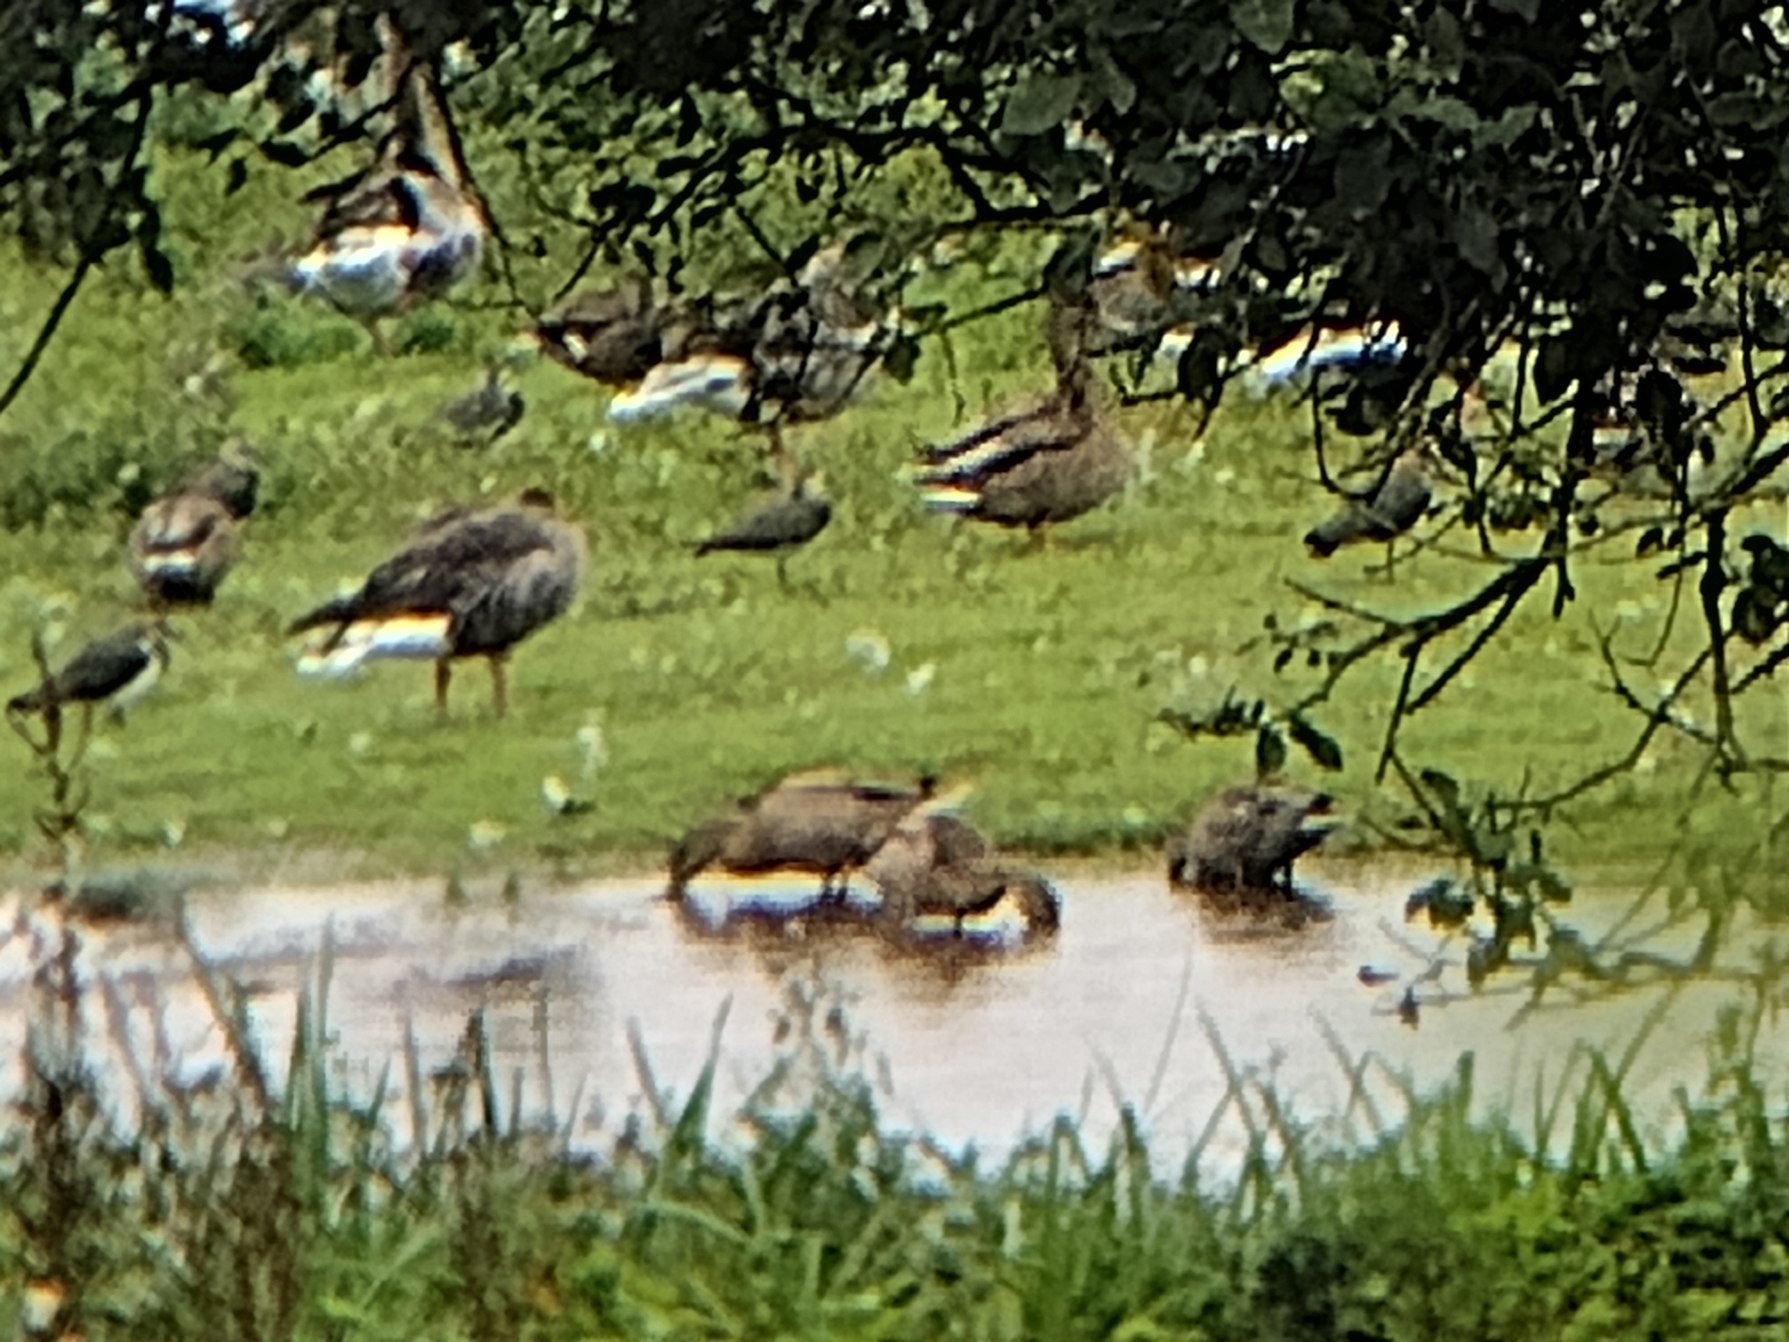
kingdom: Animalia
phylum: Chordata
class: Aves
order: Anseriformes
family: Anatidae
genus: Anas
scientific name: Anas platyrhynchos
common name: Gråand
